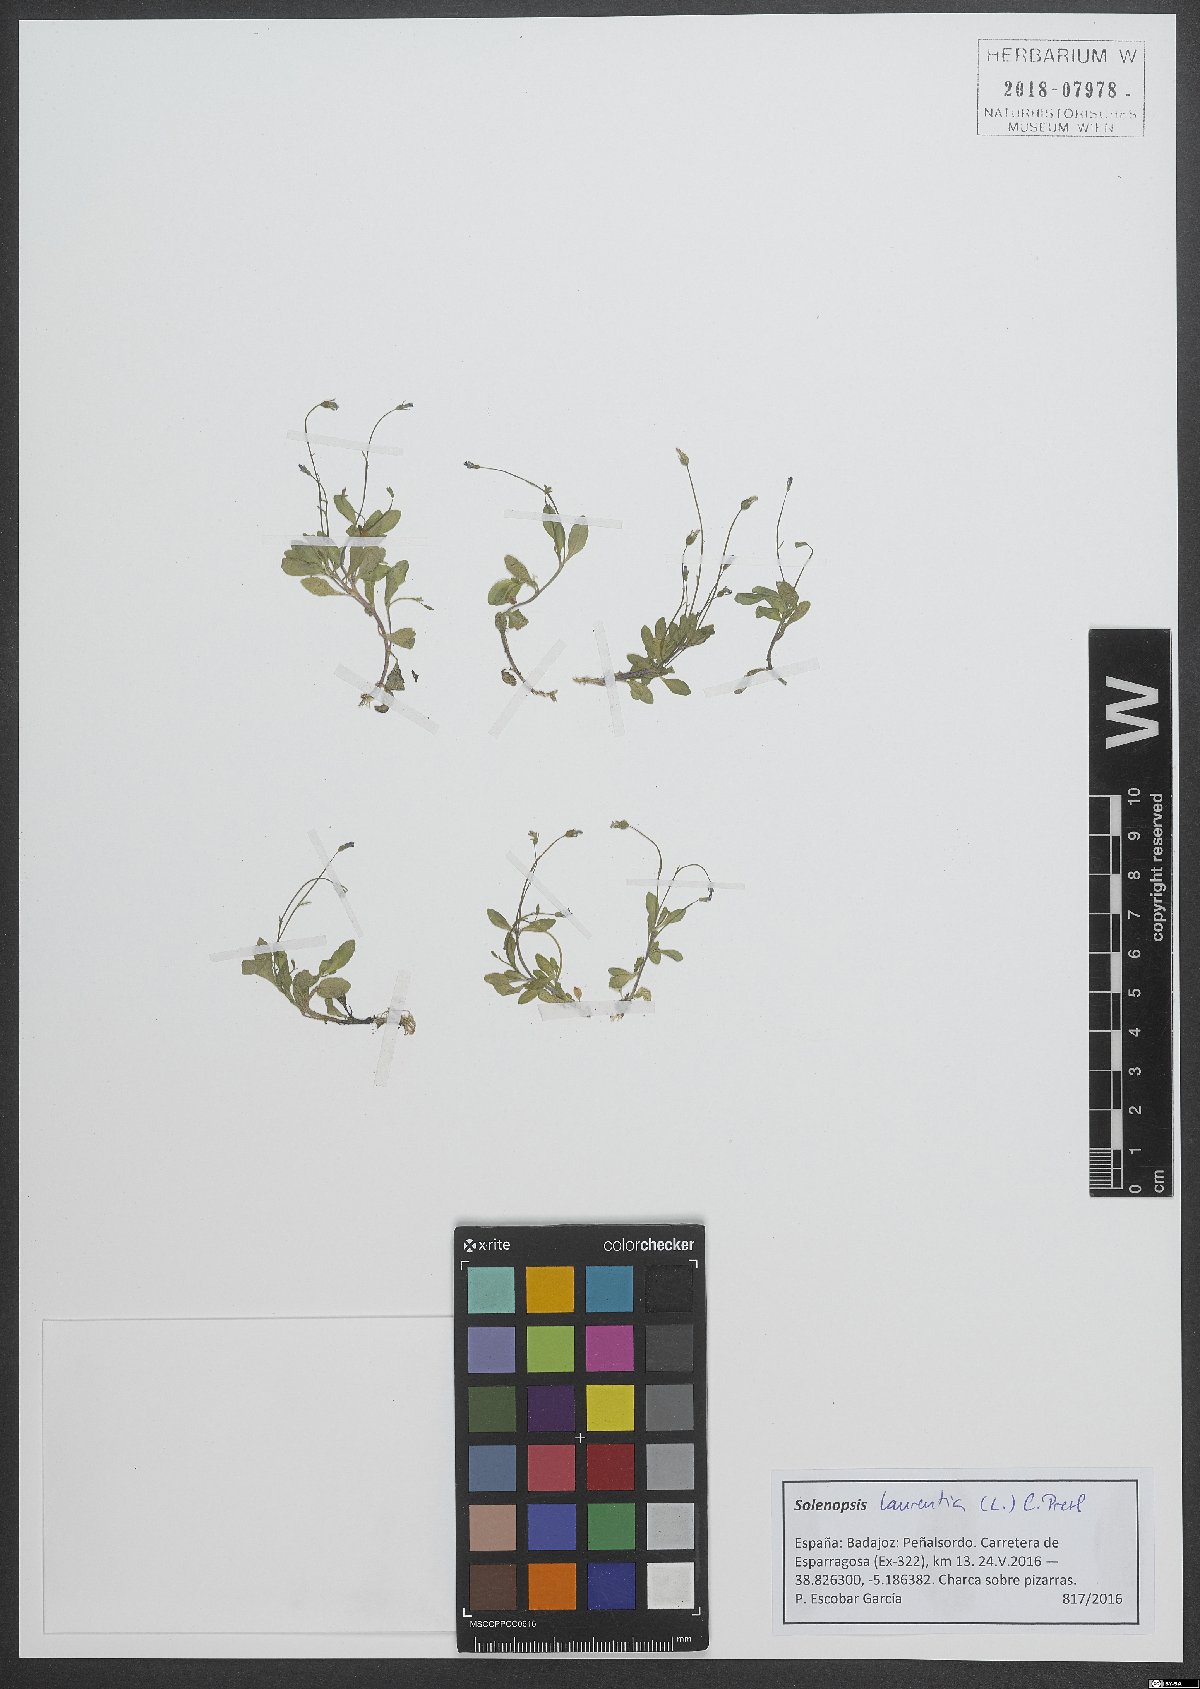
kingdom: Plantae
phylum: Tracheophyta
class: Magnoliopsida
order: Asterales
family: Campanulaceae
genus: Solenopsis
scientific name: Solenopsis laurentia
